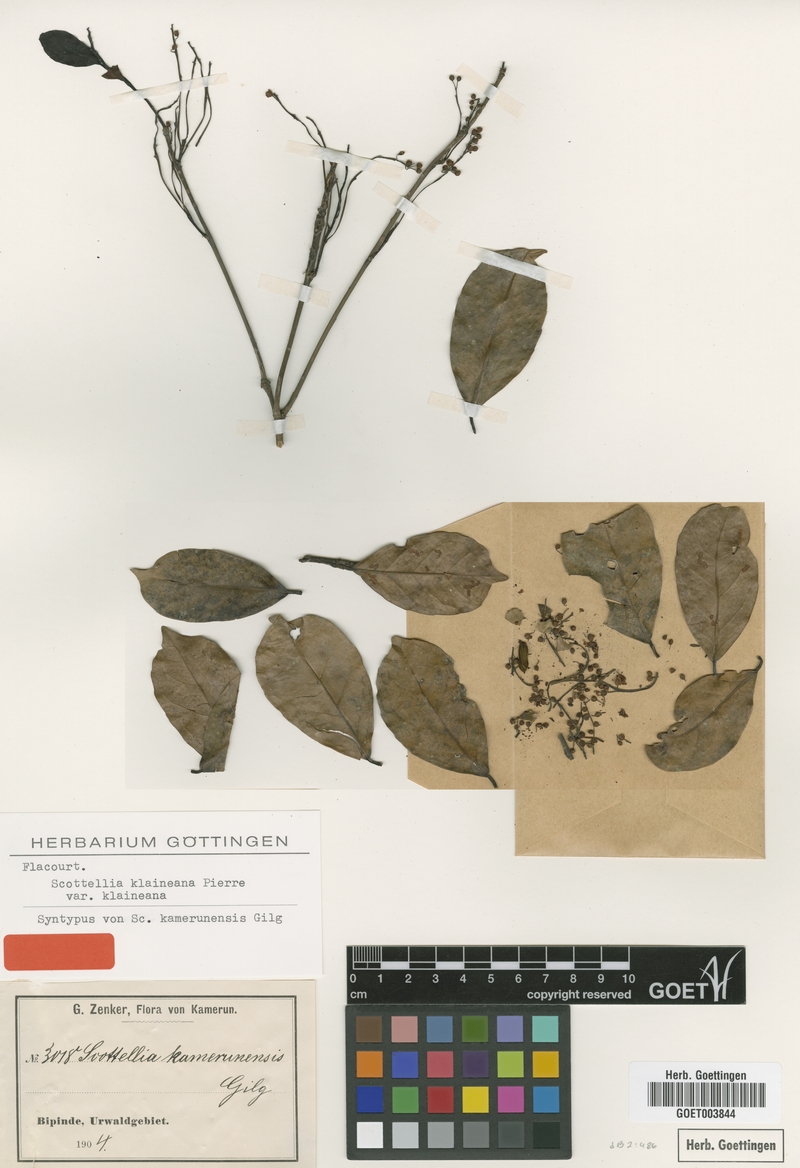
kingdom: Plantae
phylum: Tracheophyta
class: Magnoliopsida
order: Malpighiales
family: Achariaceae
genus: Scottellia
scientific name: Scottellia klaineana
